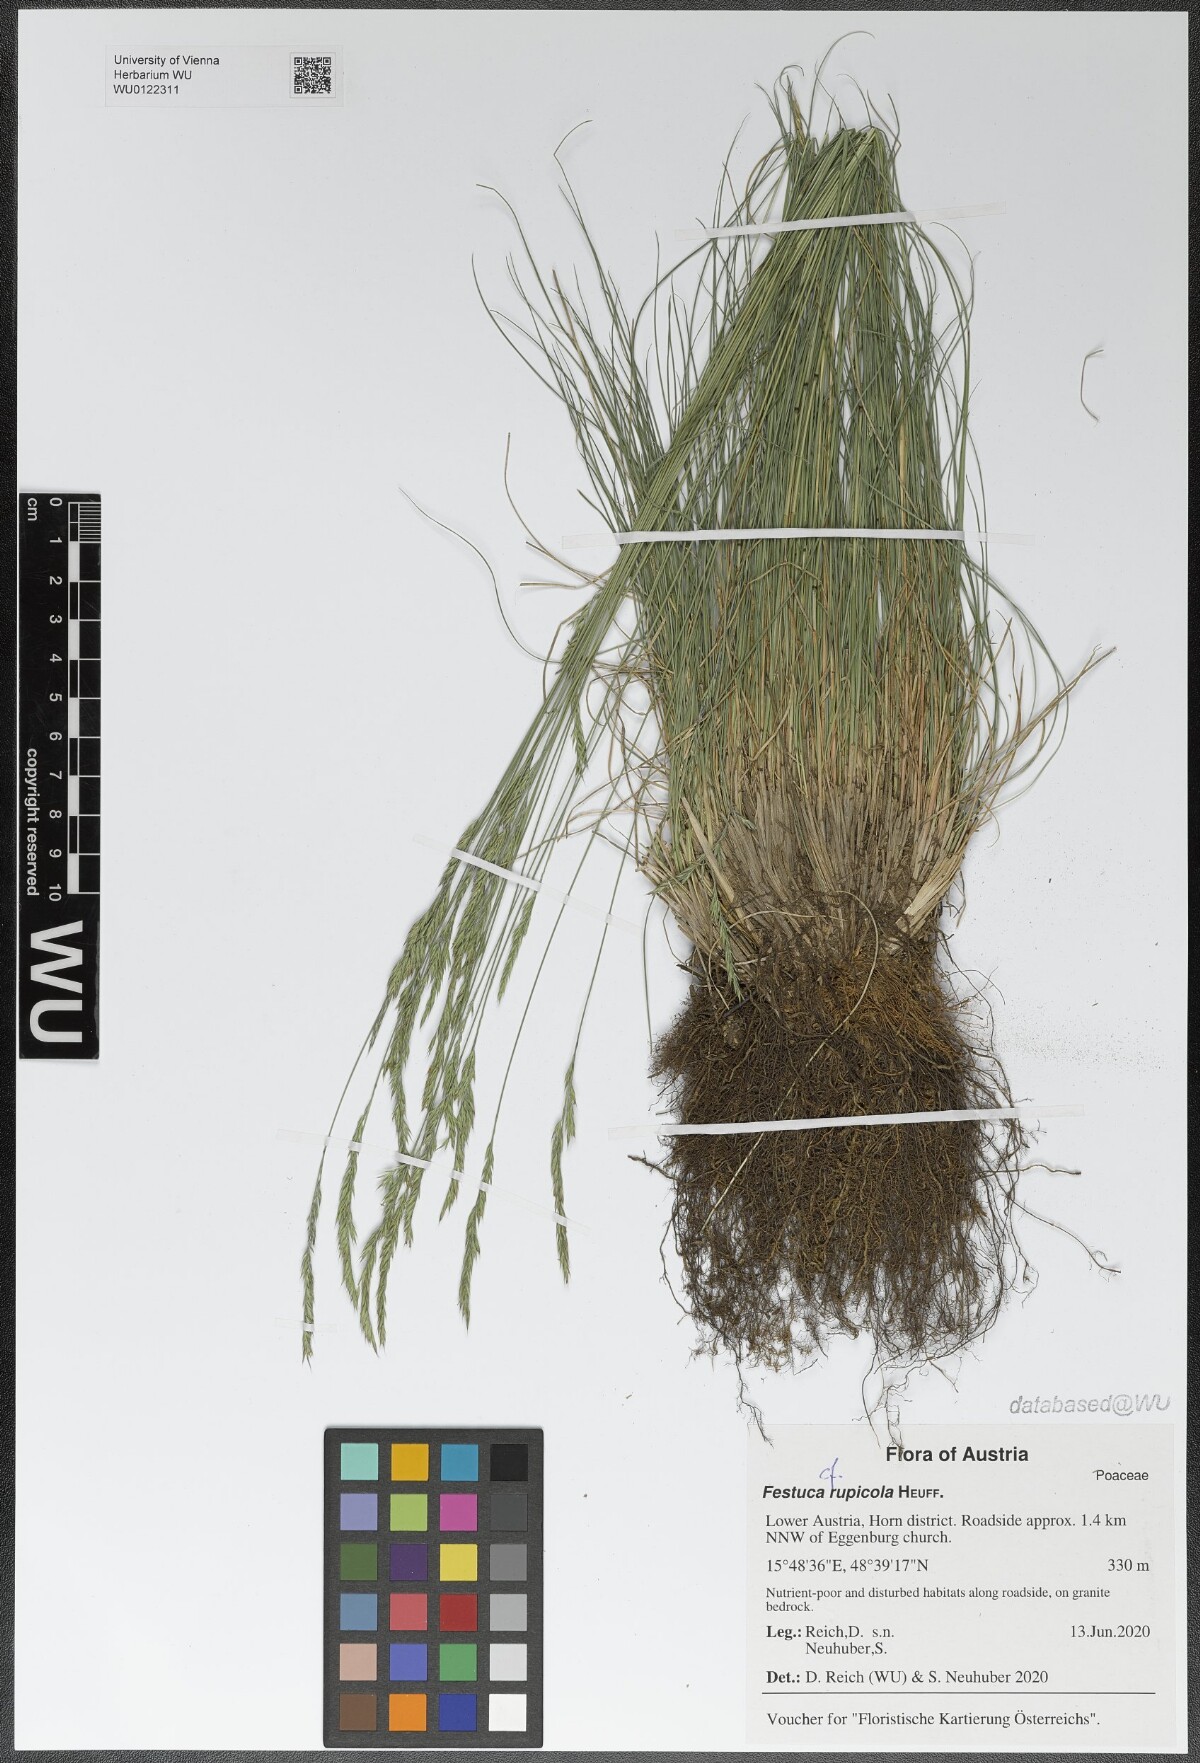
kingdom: Plantae
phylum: Tracheophyta
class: Liliopsida
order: Poales
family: Poaceae
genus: Festuca
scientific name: Festuca rupicola
